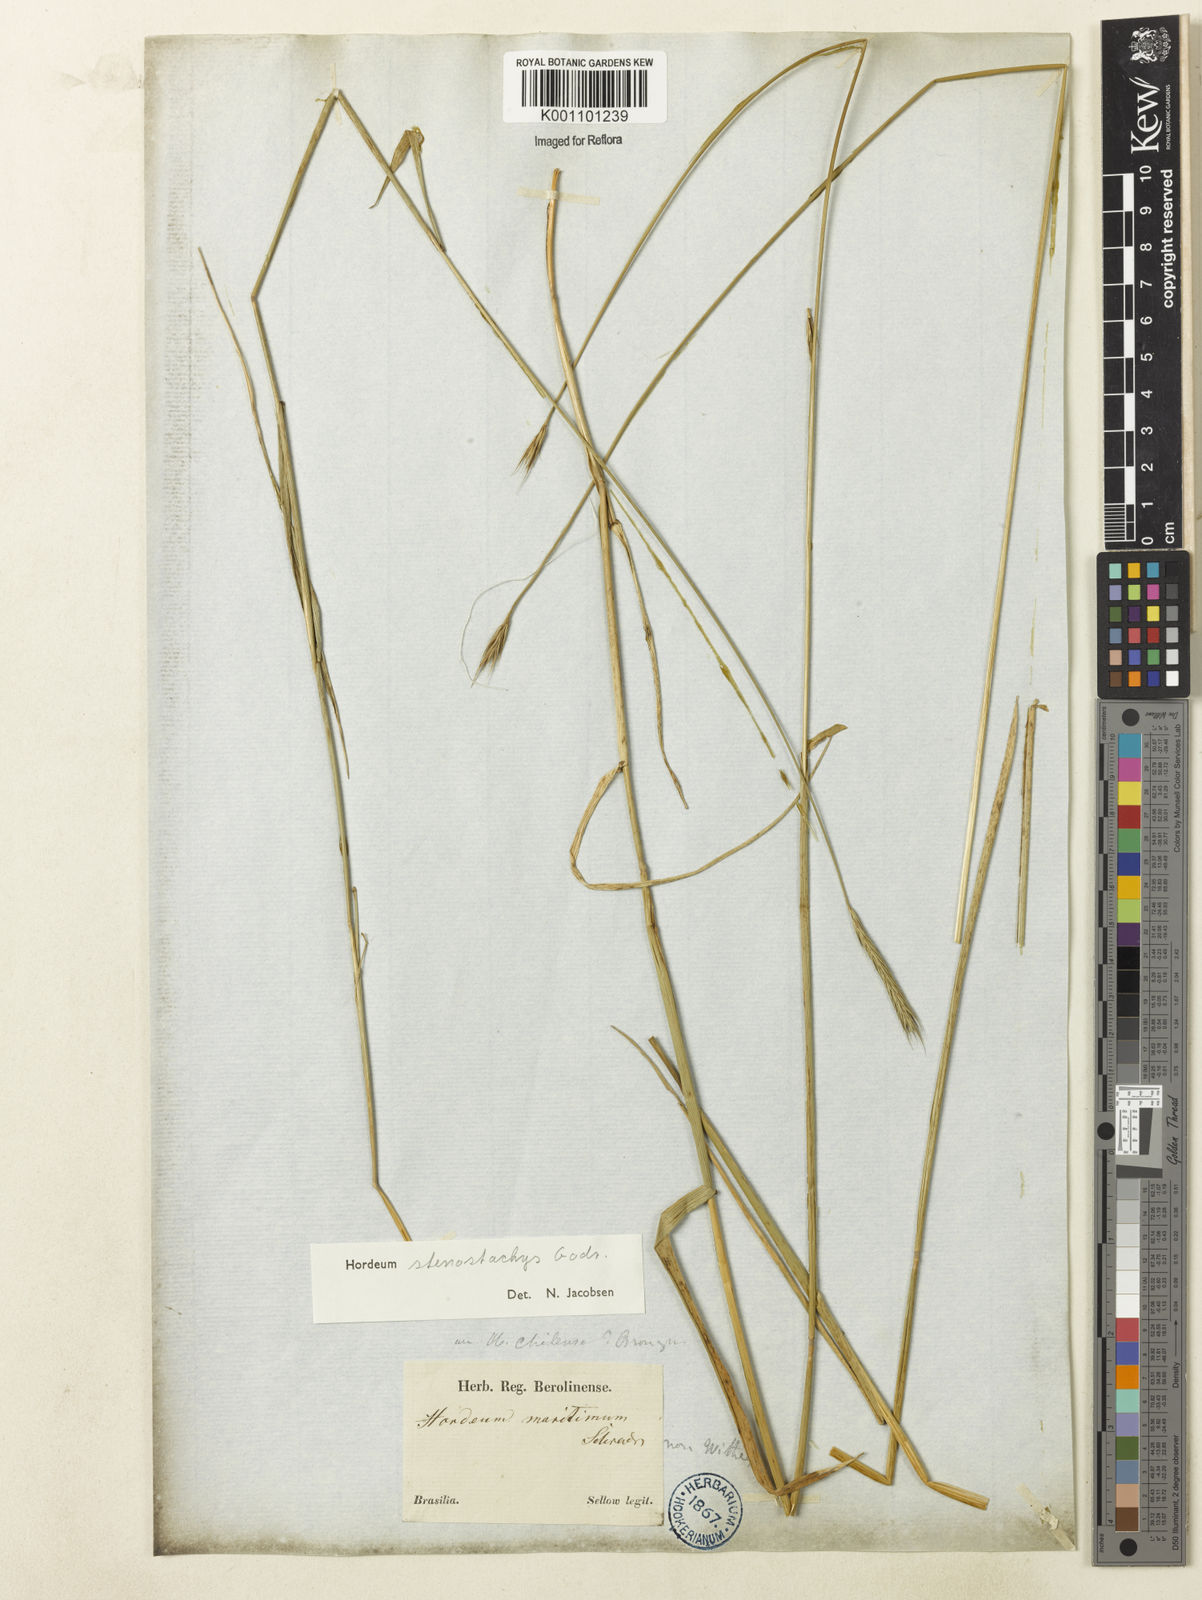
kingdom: Plantae
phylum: Tracheophyta
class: Liliopsida
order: Poales
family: Poaceae
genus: Hordeum
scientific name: Hordeum stenostachys
